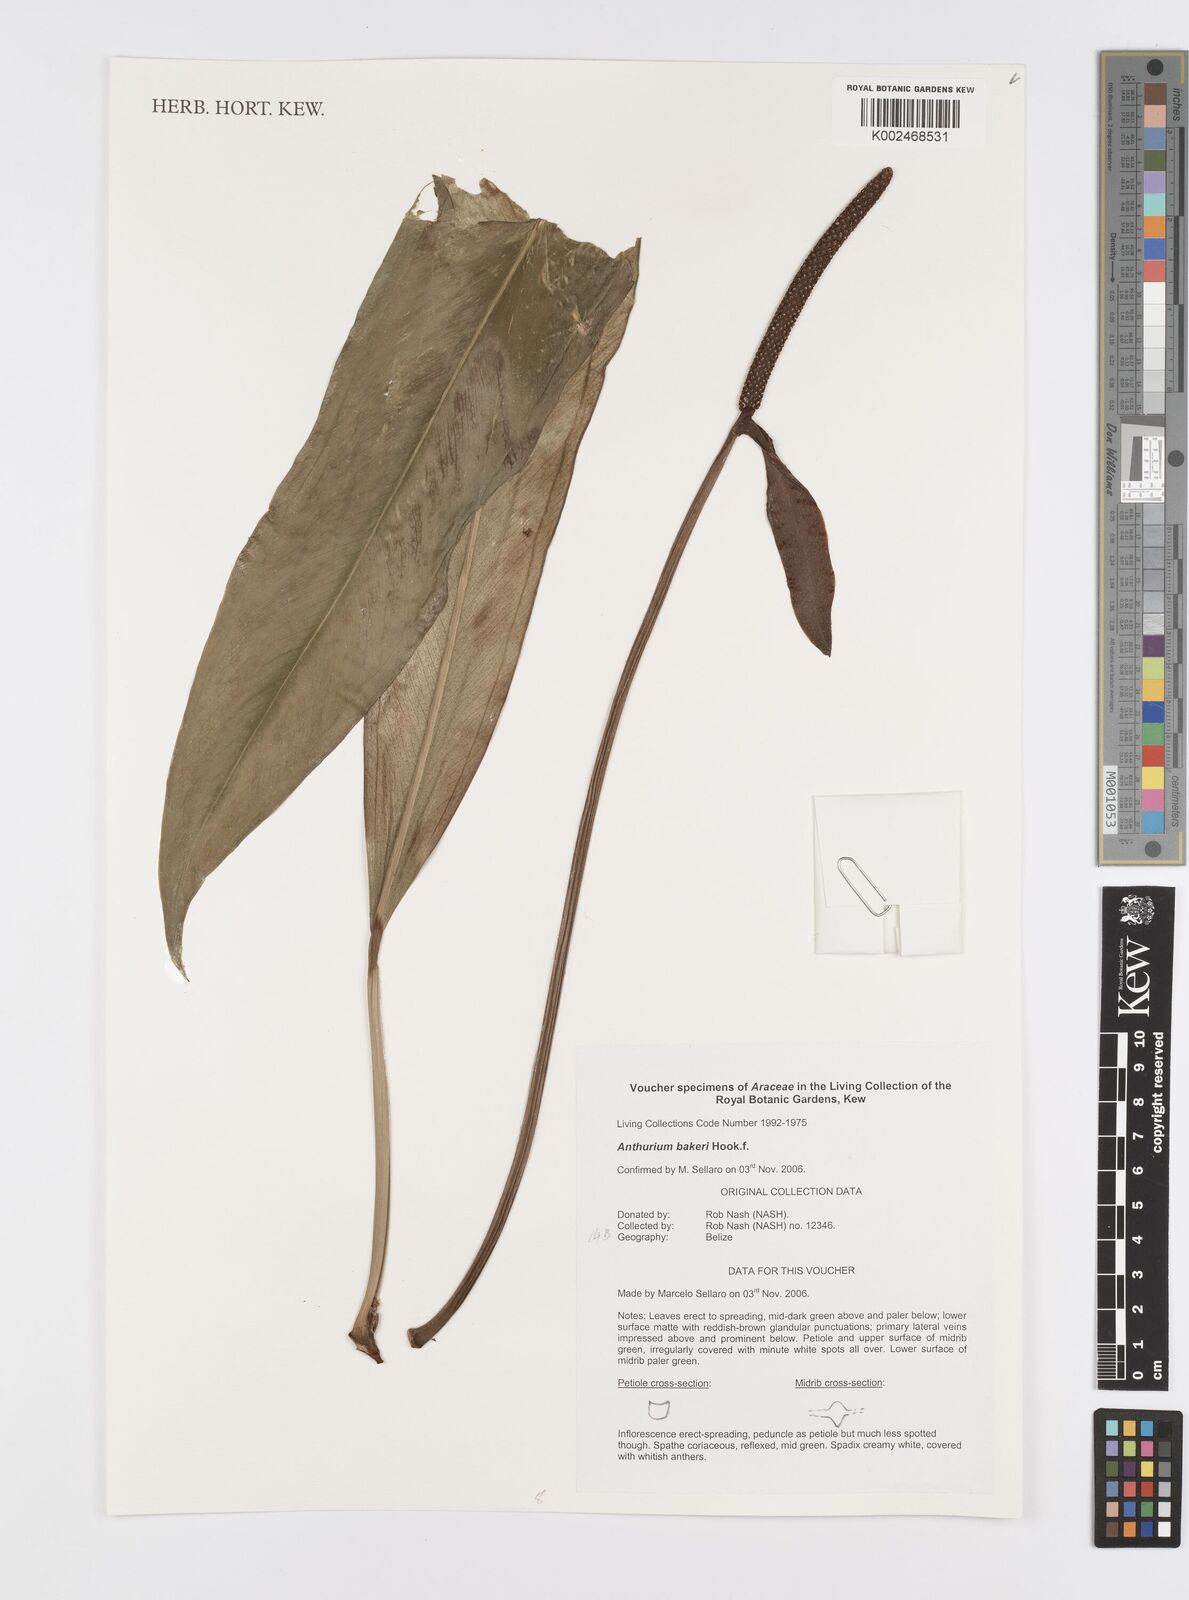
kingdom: Plantae
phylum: Tracheophyta
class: Liliopsida
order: Alismatales
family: Araceae
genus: Anthurium
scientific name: Anthurium bakeri
